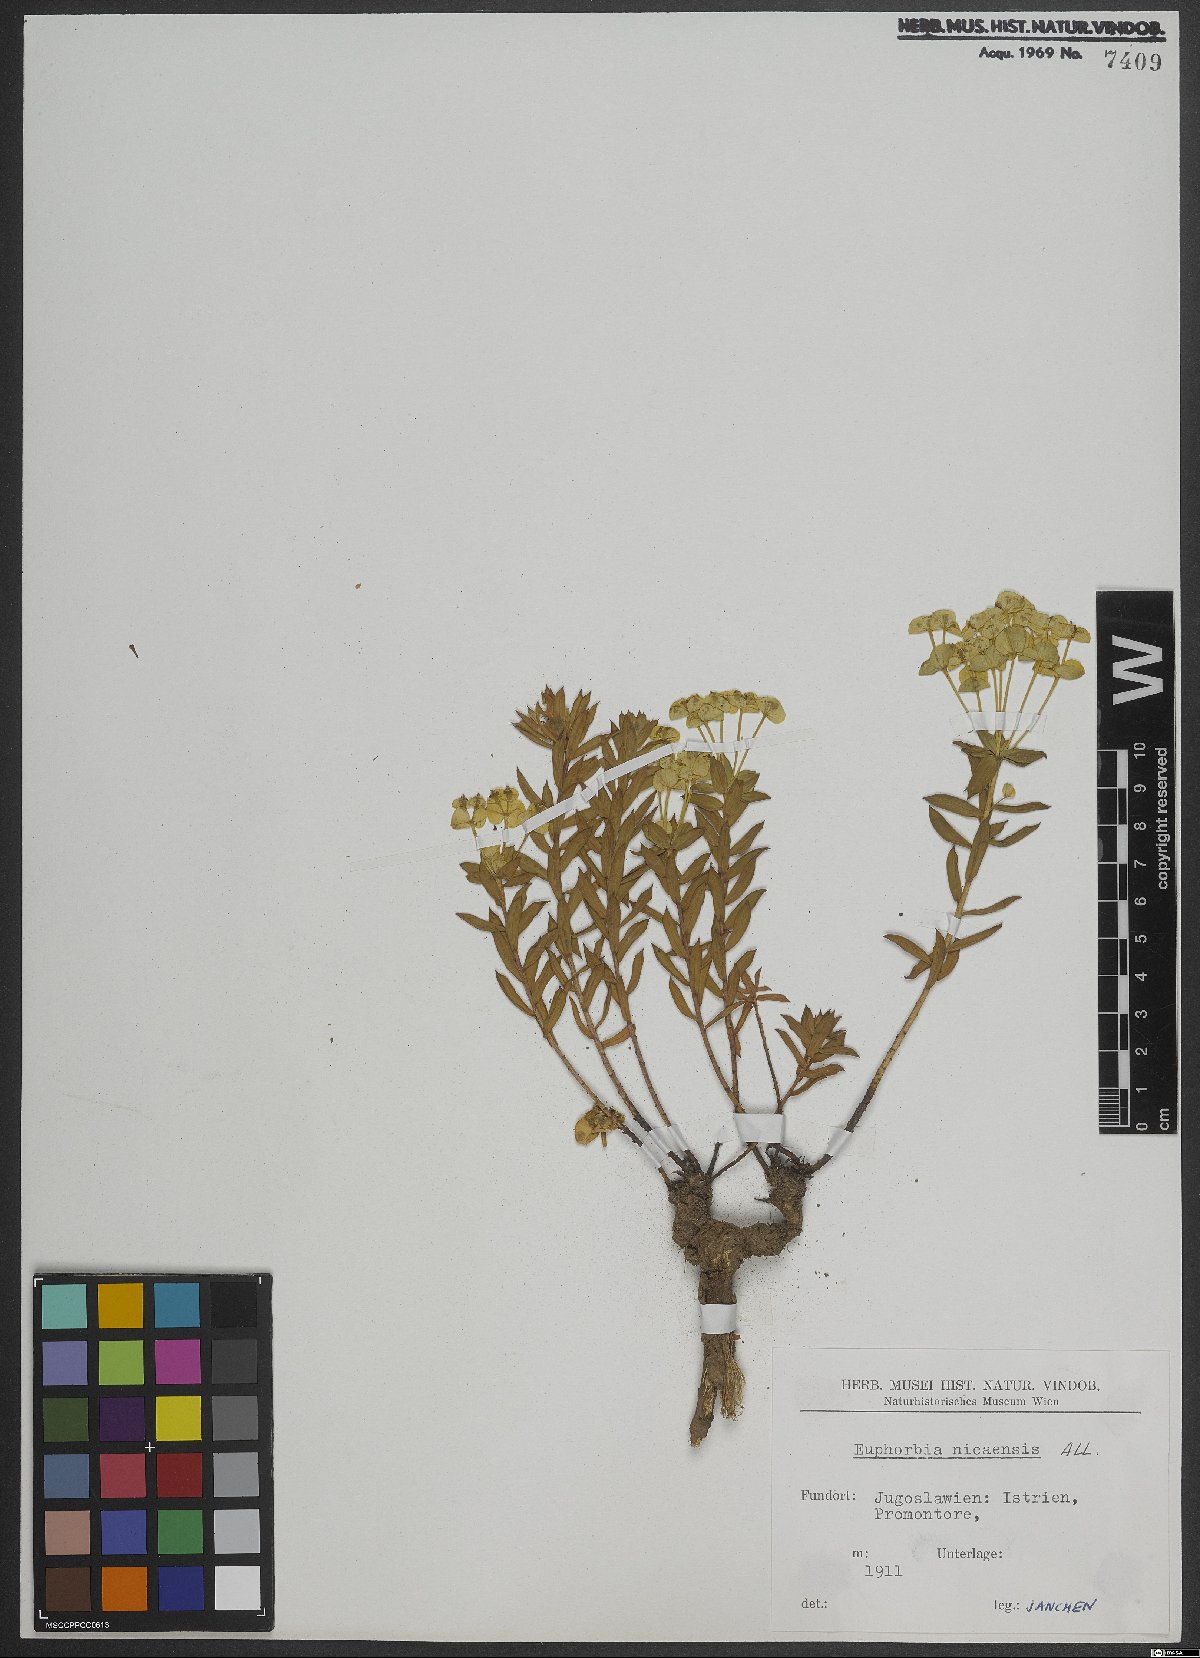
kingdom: Plantae
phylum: Tracheophyta
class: Magnoliopsida
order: Malpighiales
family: Euphorbiaceae
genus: Euphorbia
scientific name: Euphorbia nicaeensis
